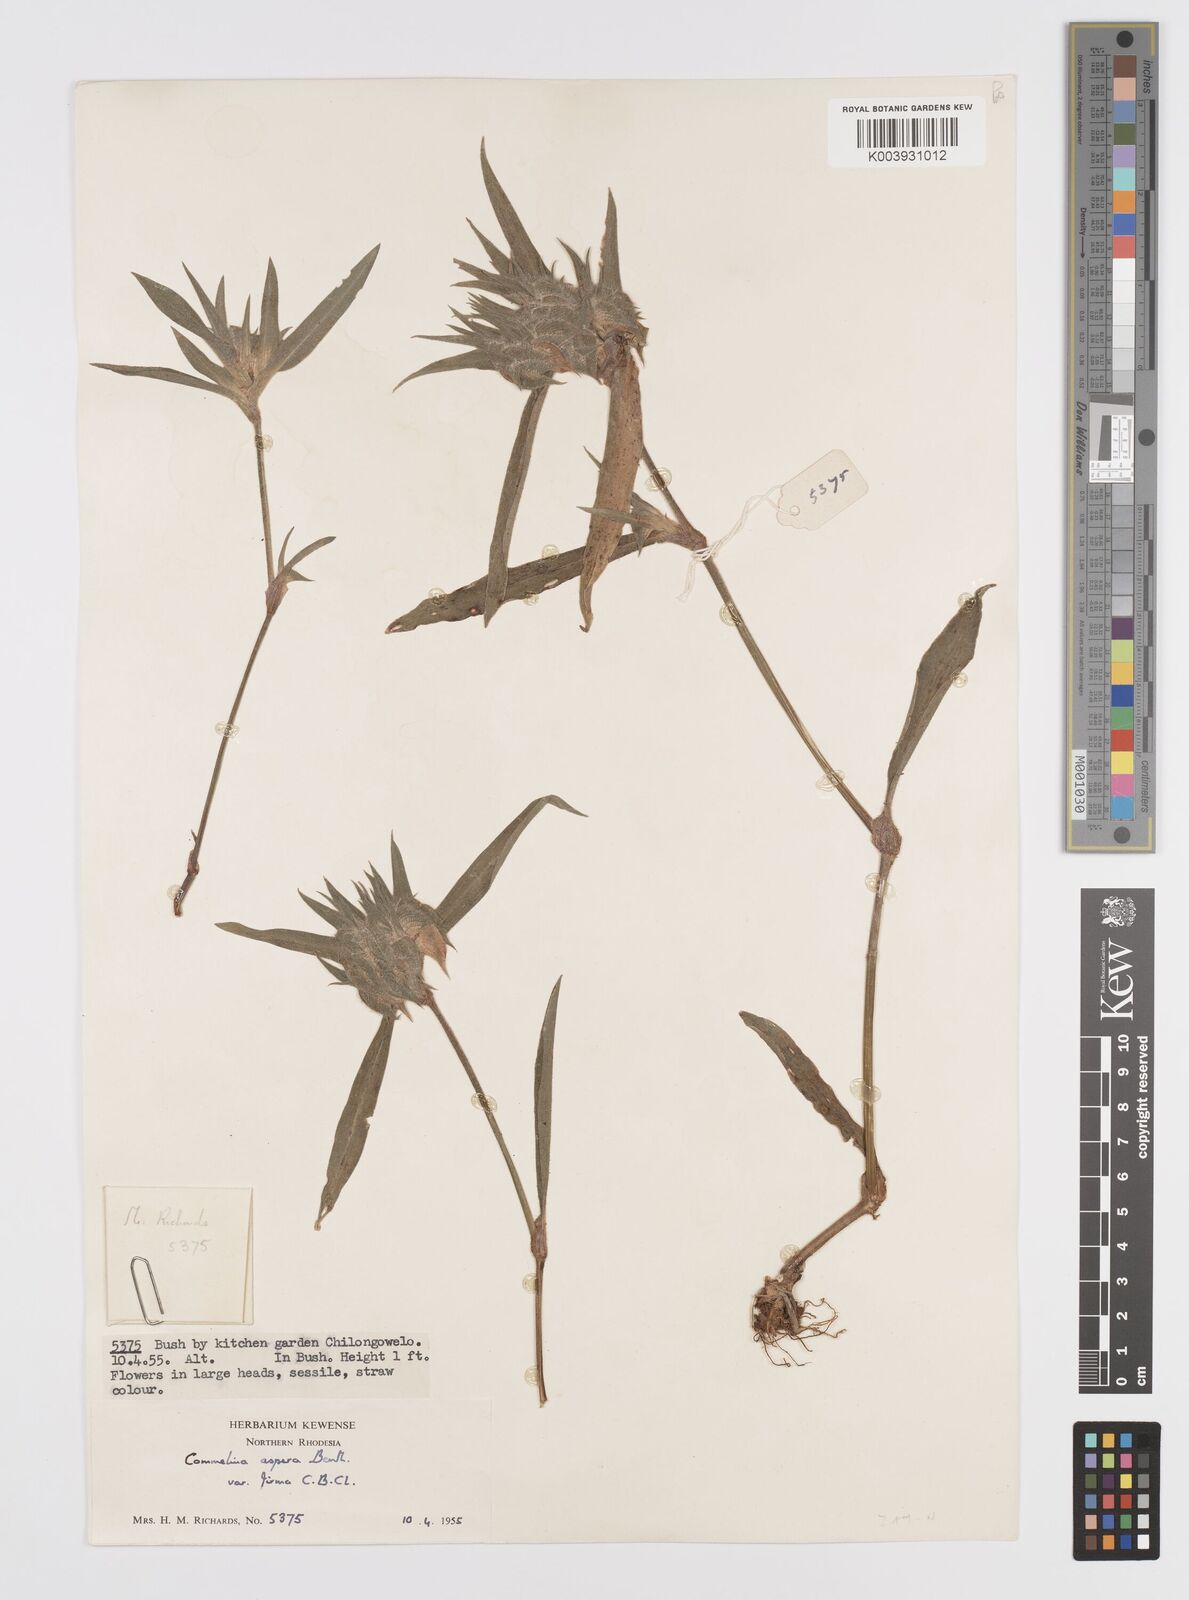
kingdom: Plantae
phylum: Tracheophyta
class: Liliopsida
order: Commelinales
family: Commelinaceae
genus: Commelina
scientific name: Commelina aspera
